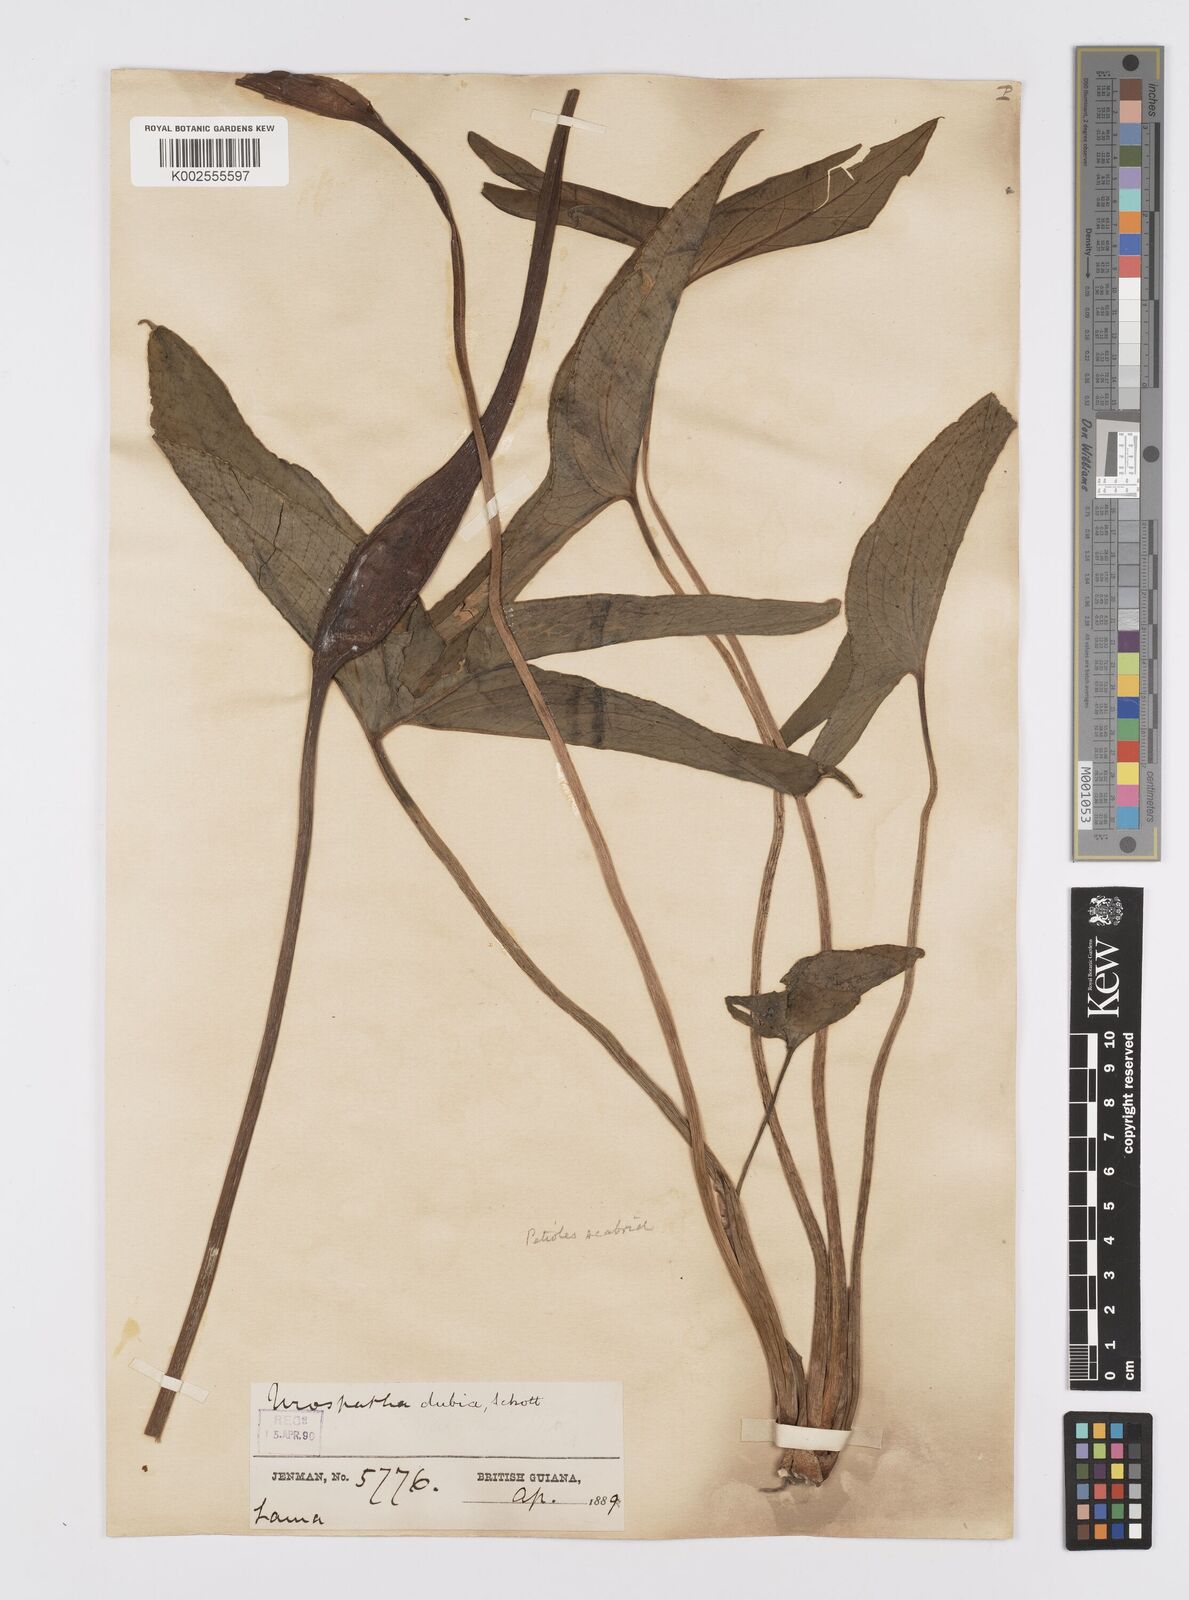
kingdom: Plantae
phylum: Tracheophyta
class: Liliopsida
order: Alismatales
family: Araceae
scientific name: Araceae
